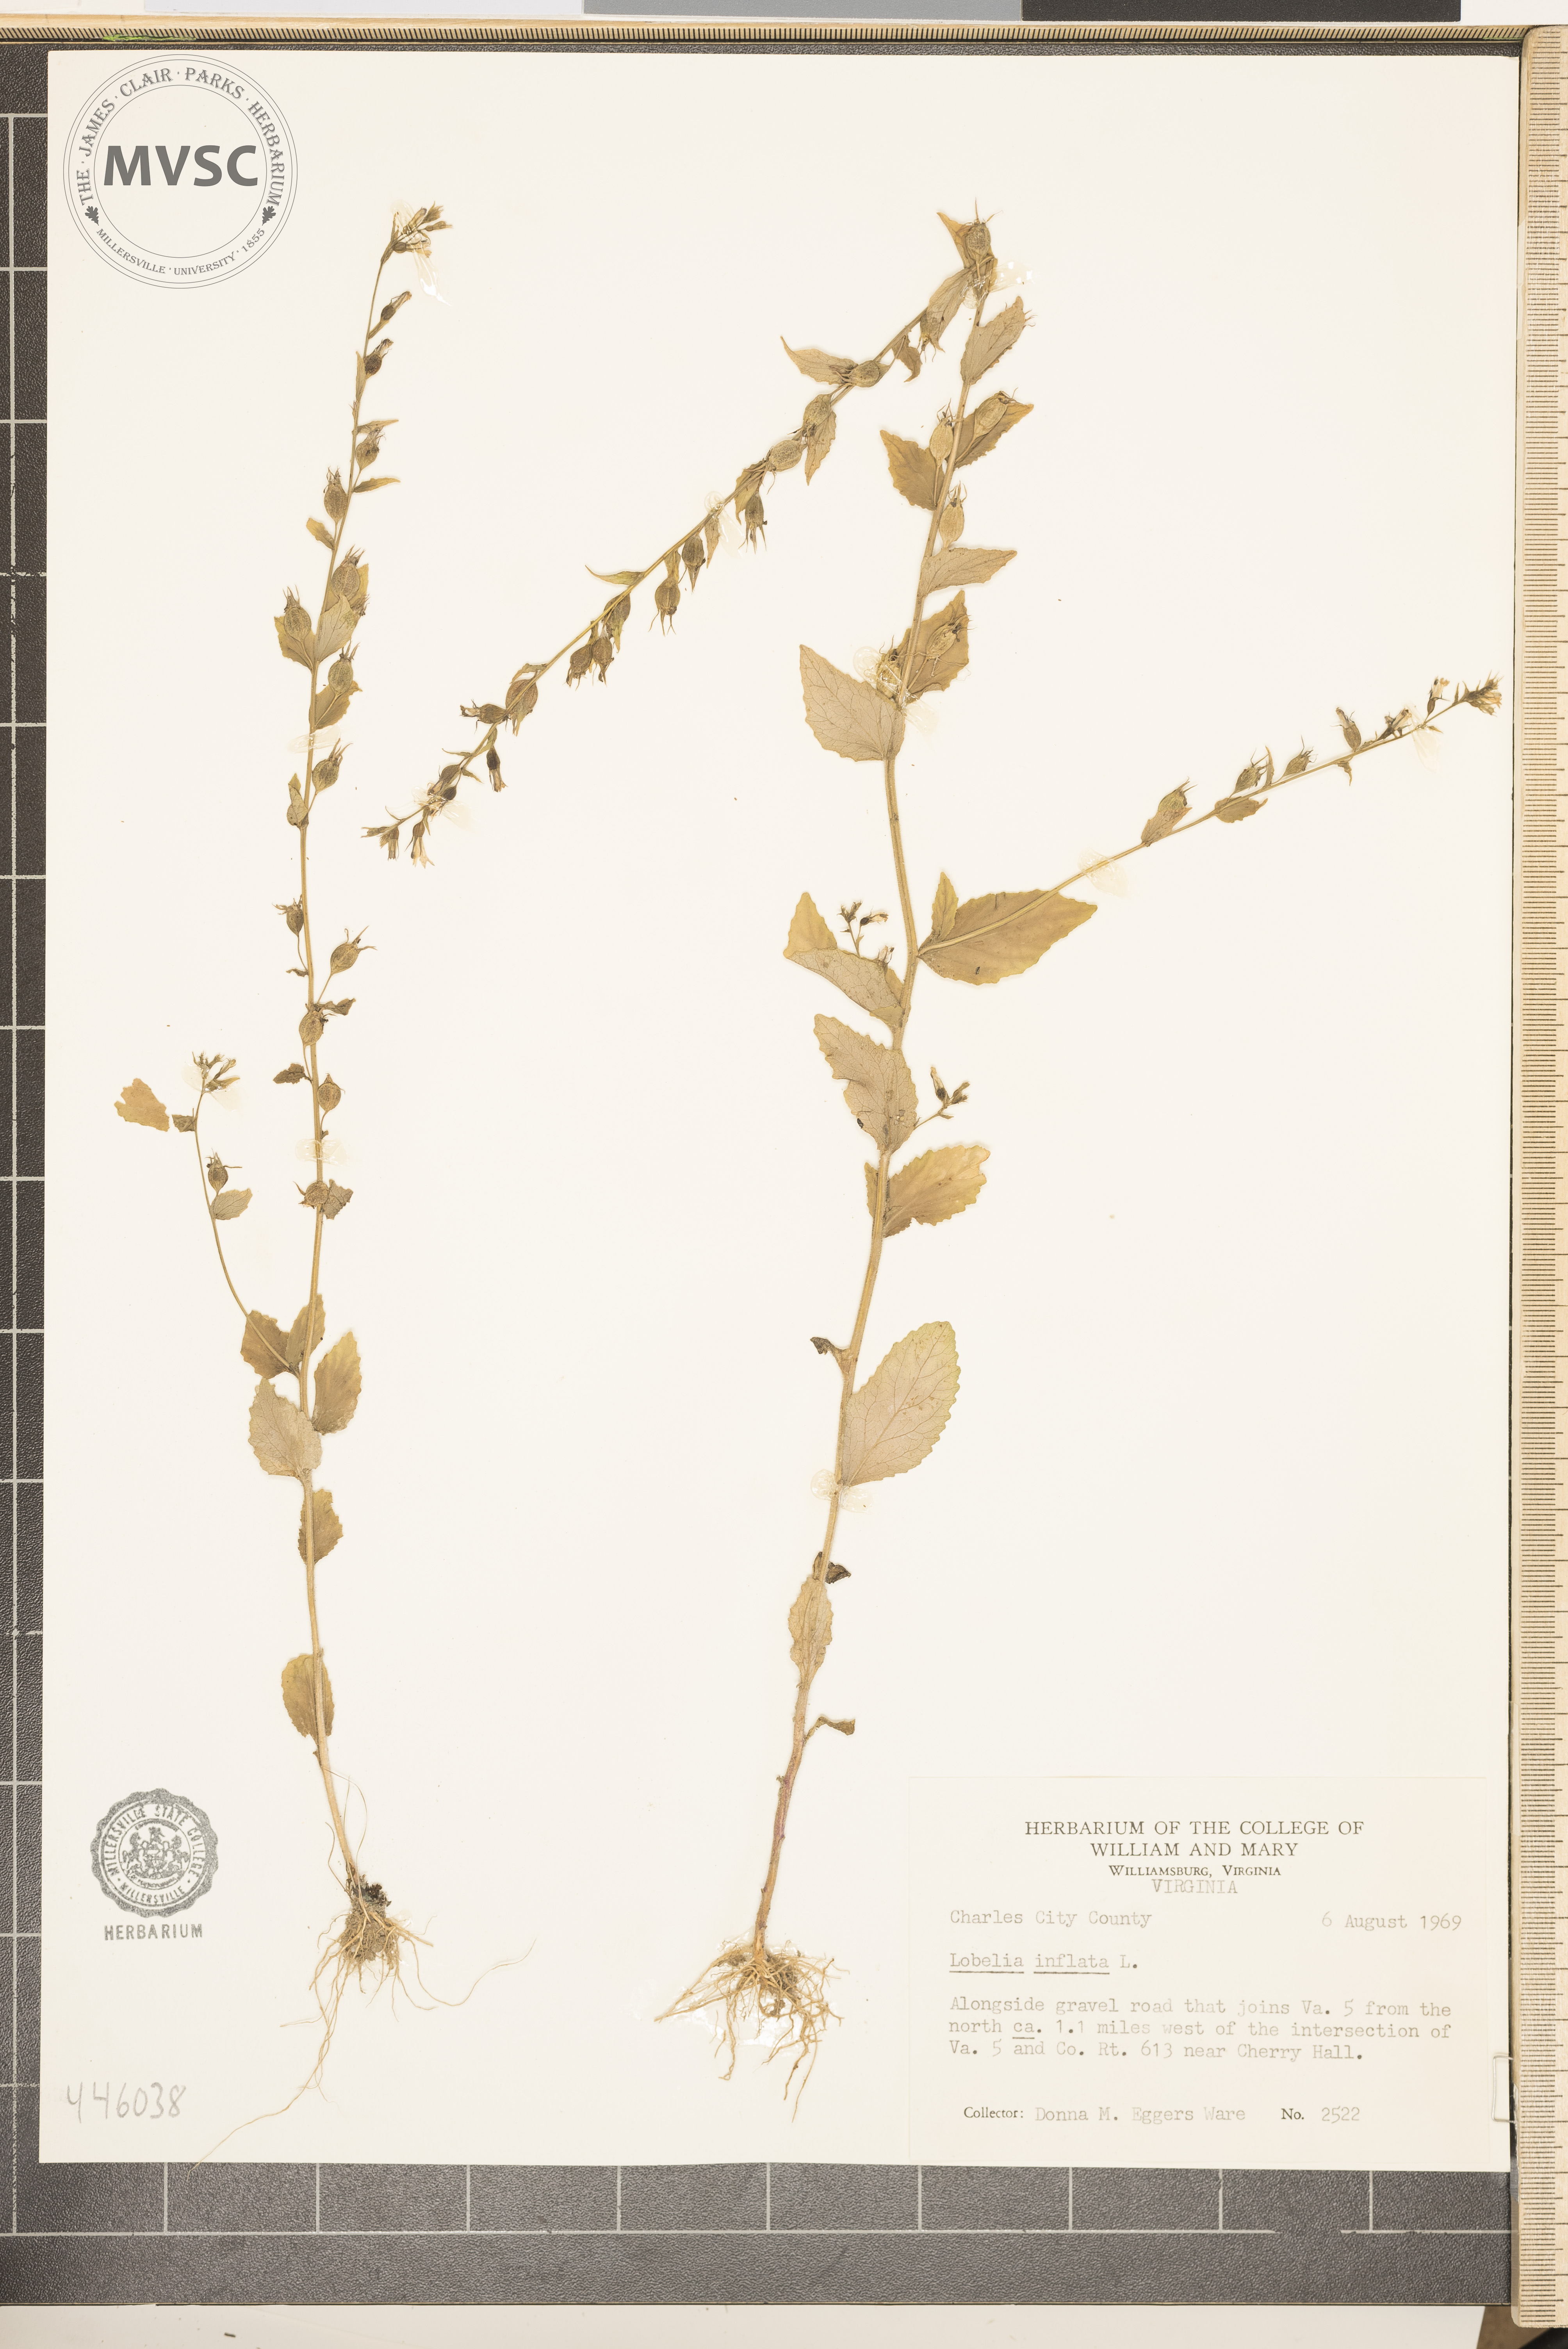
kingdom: Plantae
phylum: Tracheophyta
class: Magnoliopsida
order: Asterales
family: Campanulaceae
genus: Lobelia
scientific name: Lobelia inflata
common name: Indian tobacco
